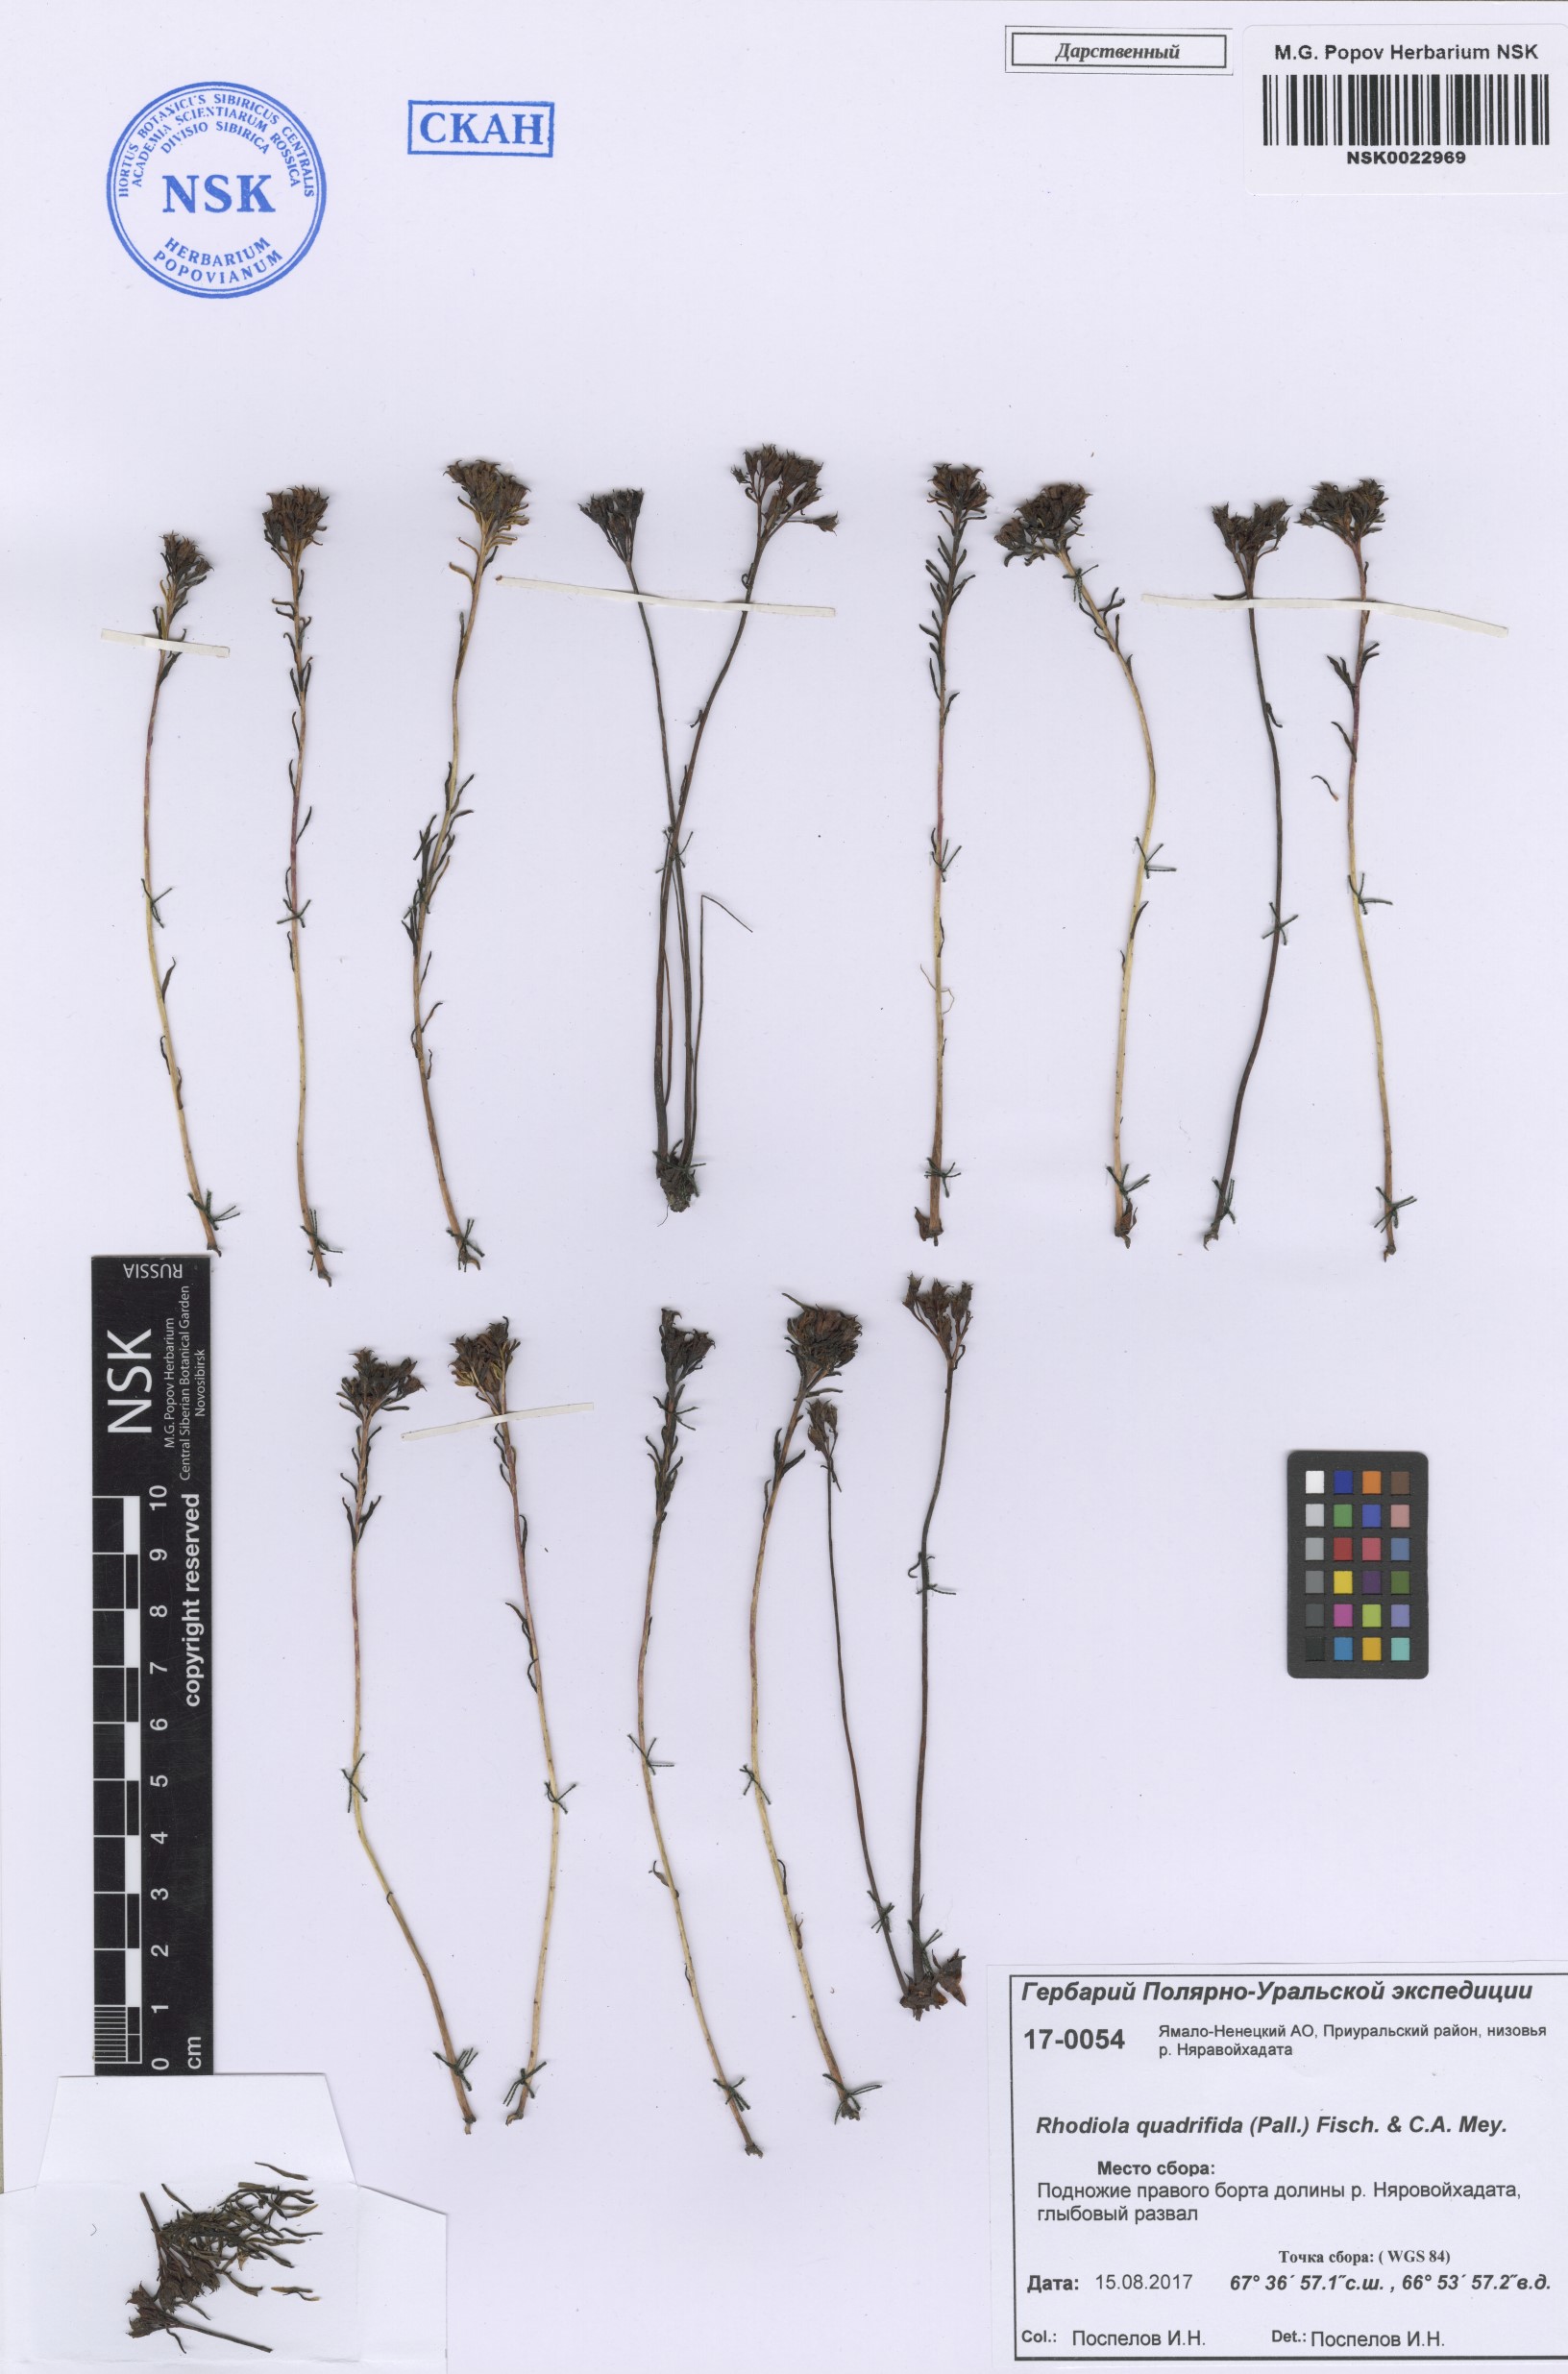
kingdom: Plantae
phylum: Tracheophyta
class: Magnoliopsida
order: Saxifragales
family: Crassulaceae
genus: Rhodiola
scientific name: Rhodiola quadrifida
